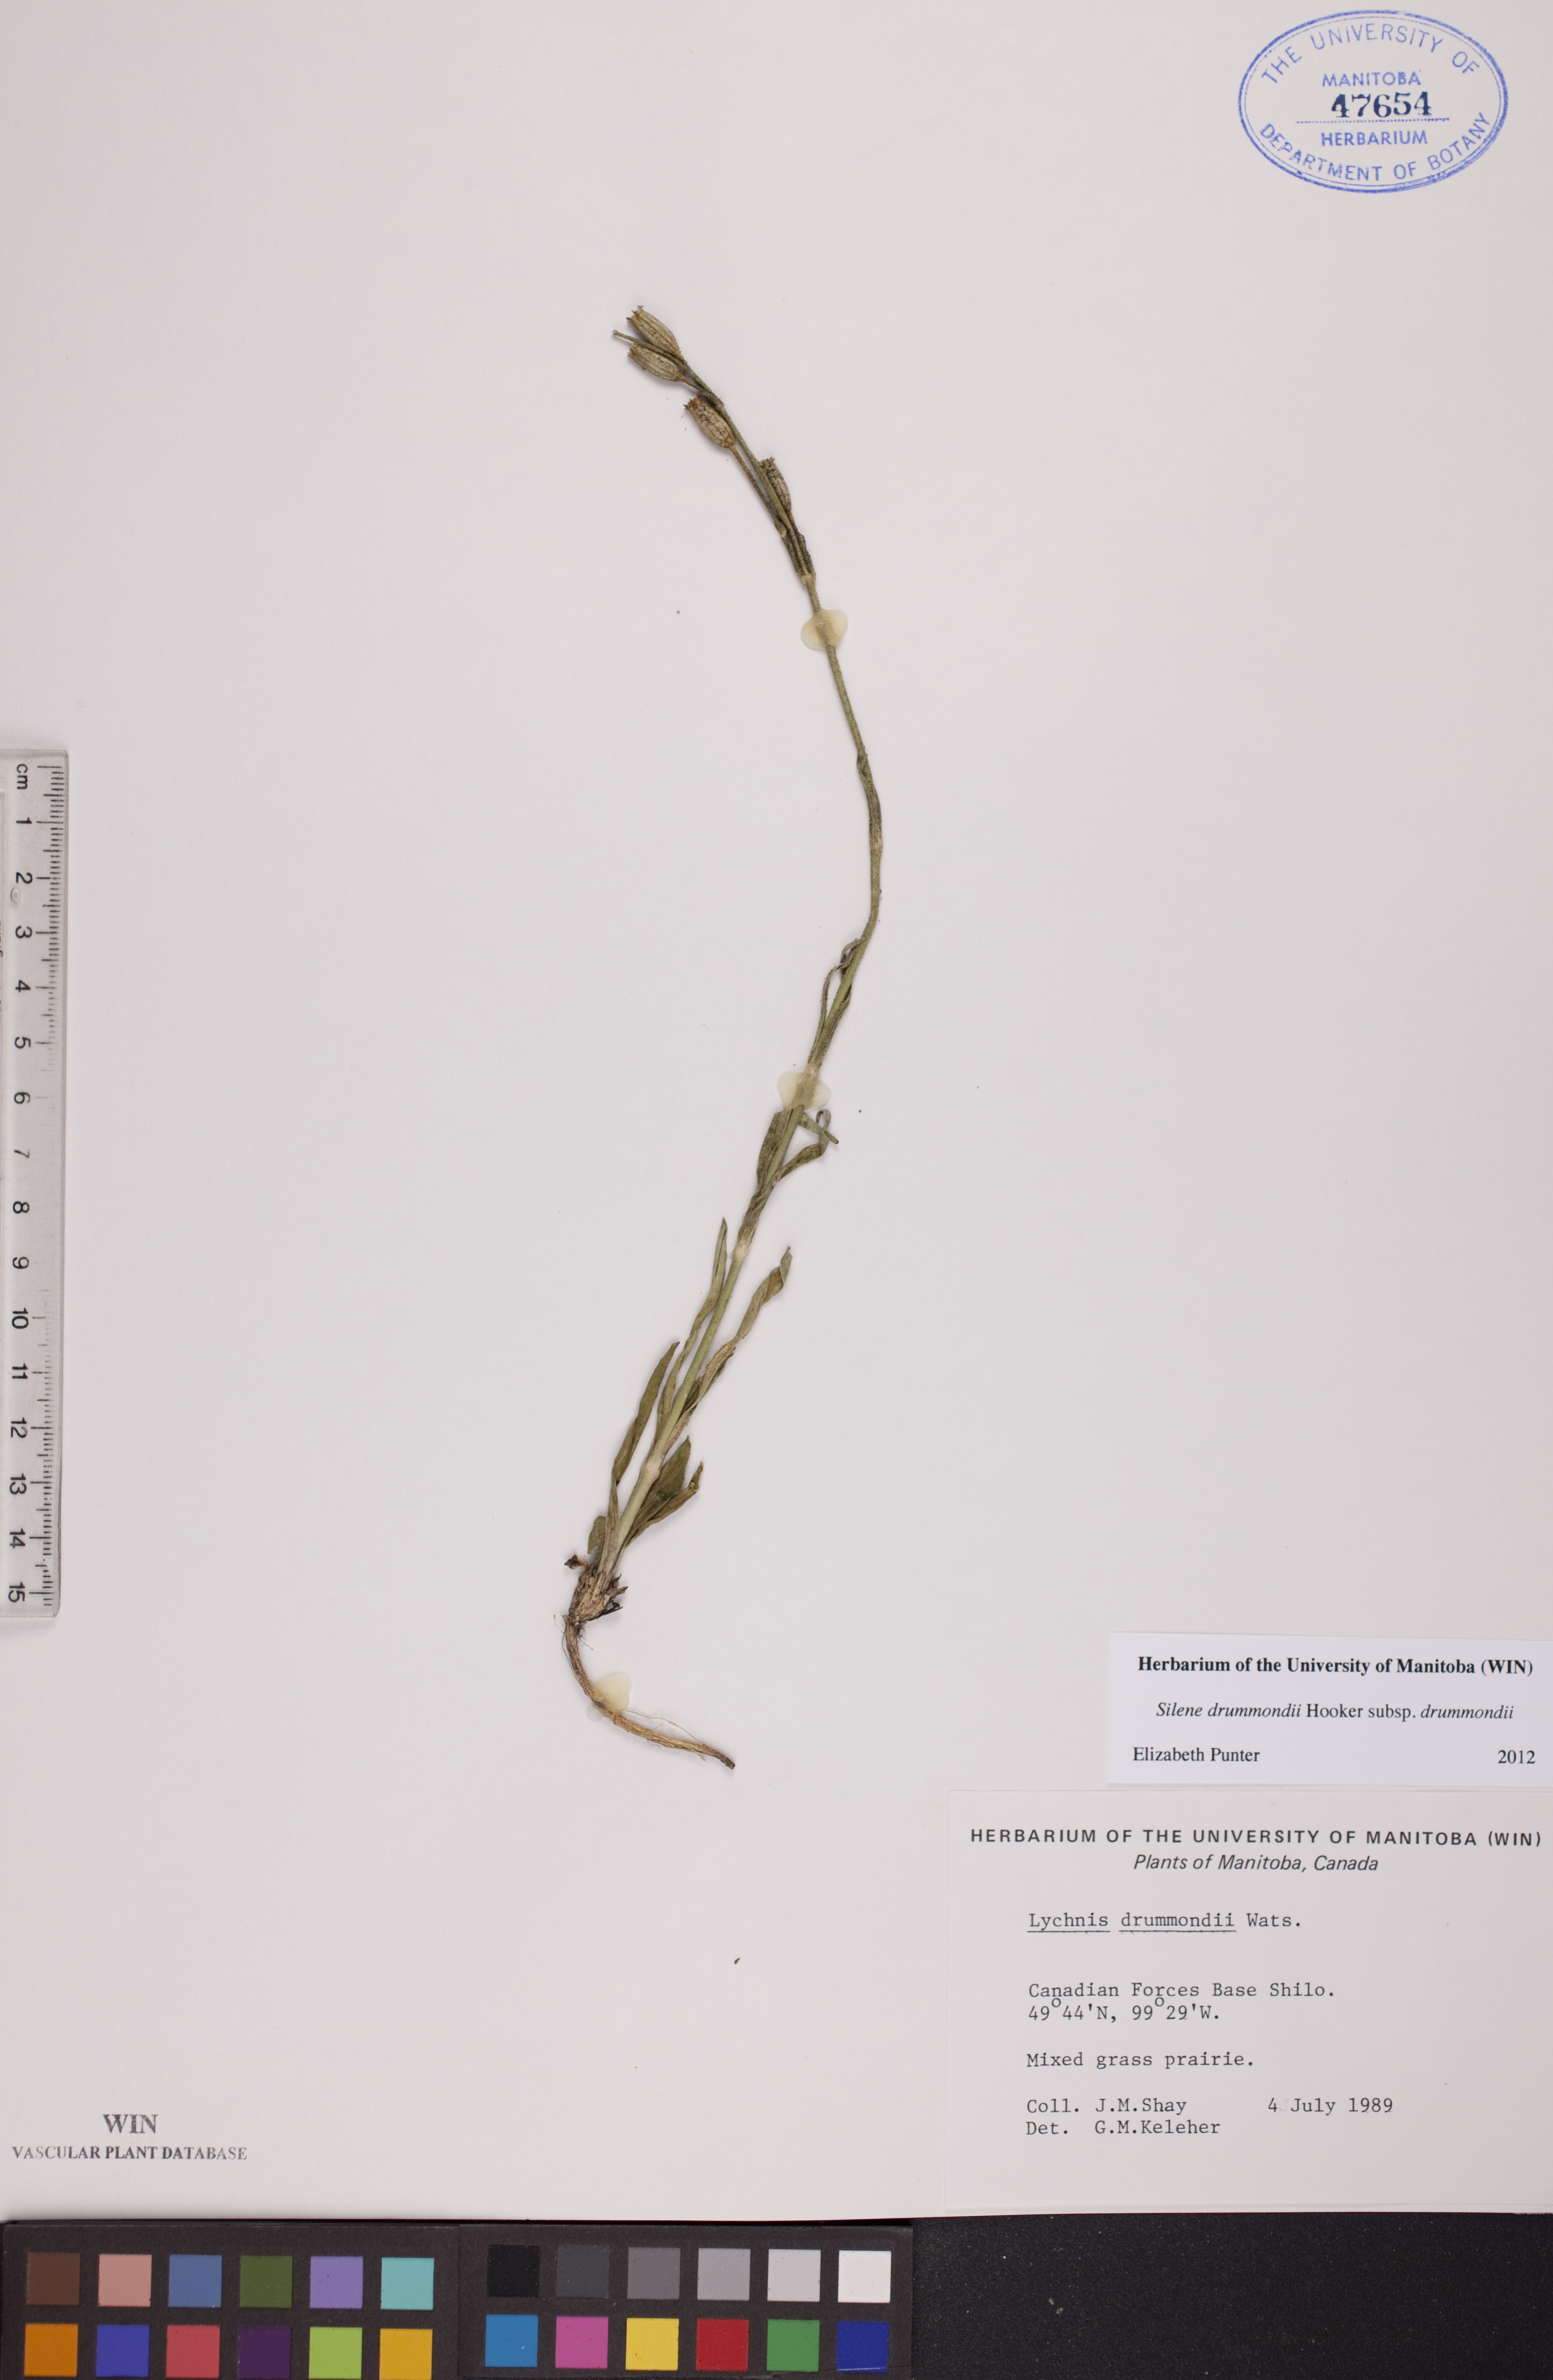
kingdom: Plantae
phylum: Tracheophyta
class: Magnoliopsida
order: Caryophyllales
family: Caryophyllaceae
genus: Silene
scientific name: Silene drummondii
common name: Drummond's catchfly
